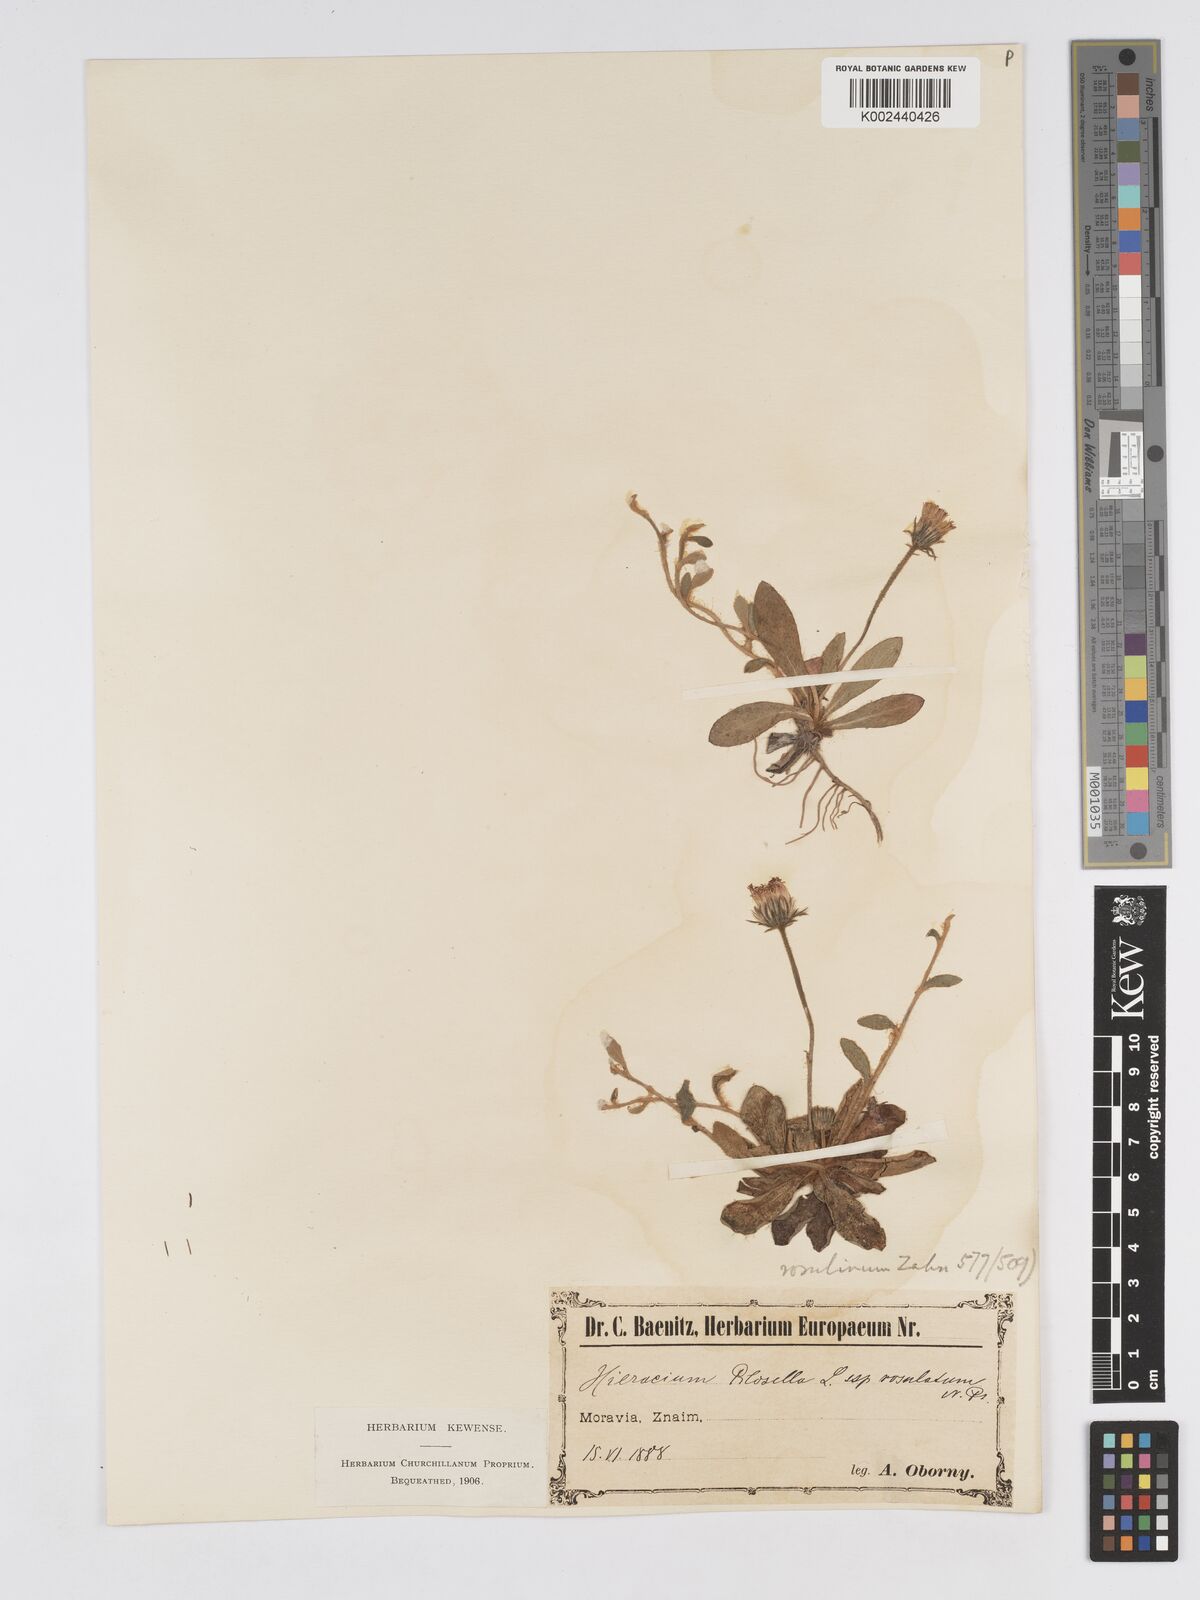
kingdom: Plantae
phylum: Tracheophyta
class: Magnoliopsida
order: Asterales
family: Asteraceae
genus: Pilosella
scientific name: Pilosella officinarum
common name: Mouse-ear hawkweed
